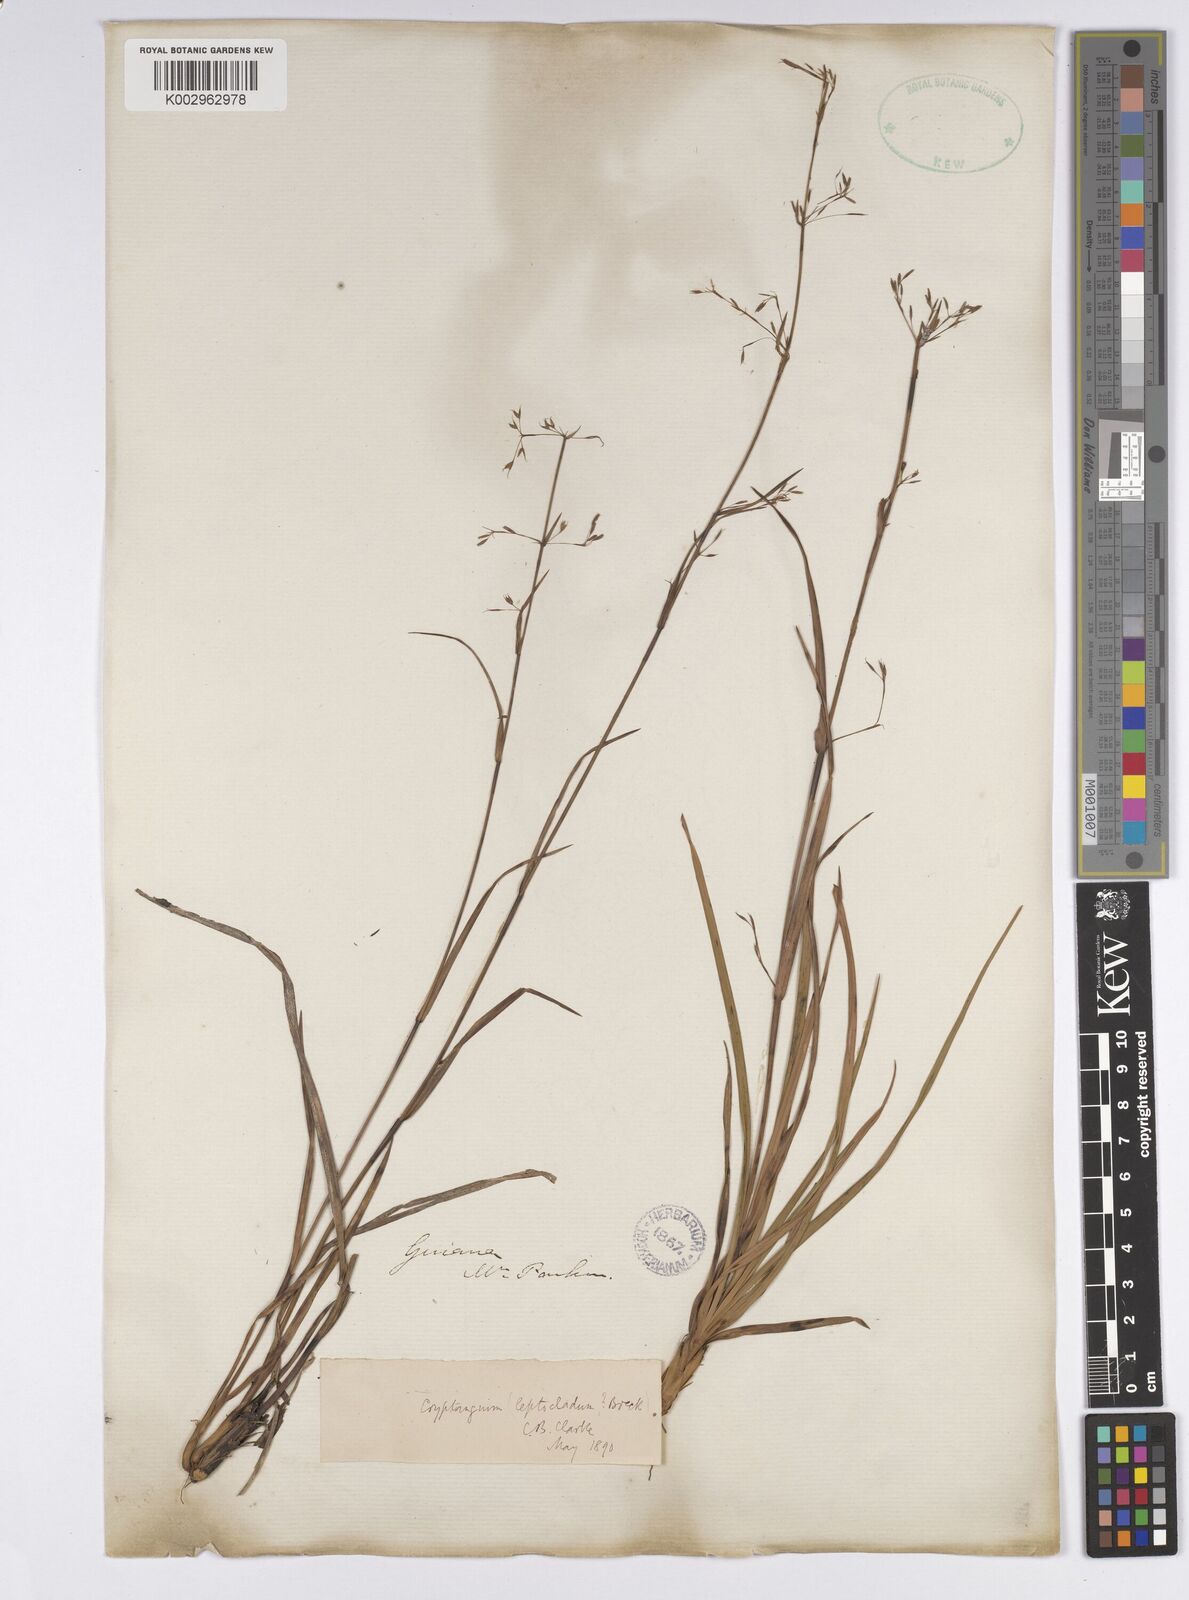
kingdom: Plantae
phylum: Tracheophyta
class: Liliopsida
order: Poales
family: Cyperaceae
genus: Cryptangium
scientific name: Cryptangium verticillatum
